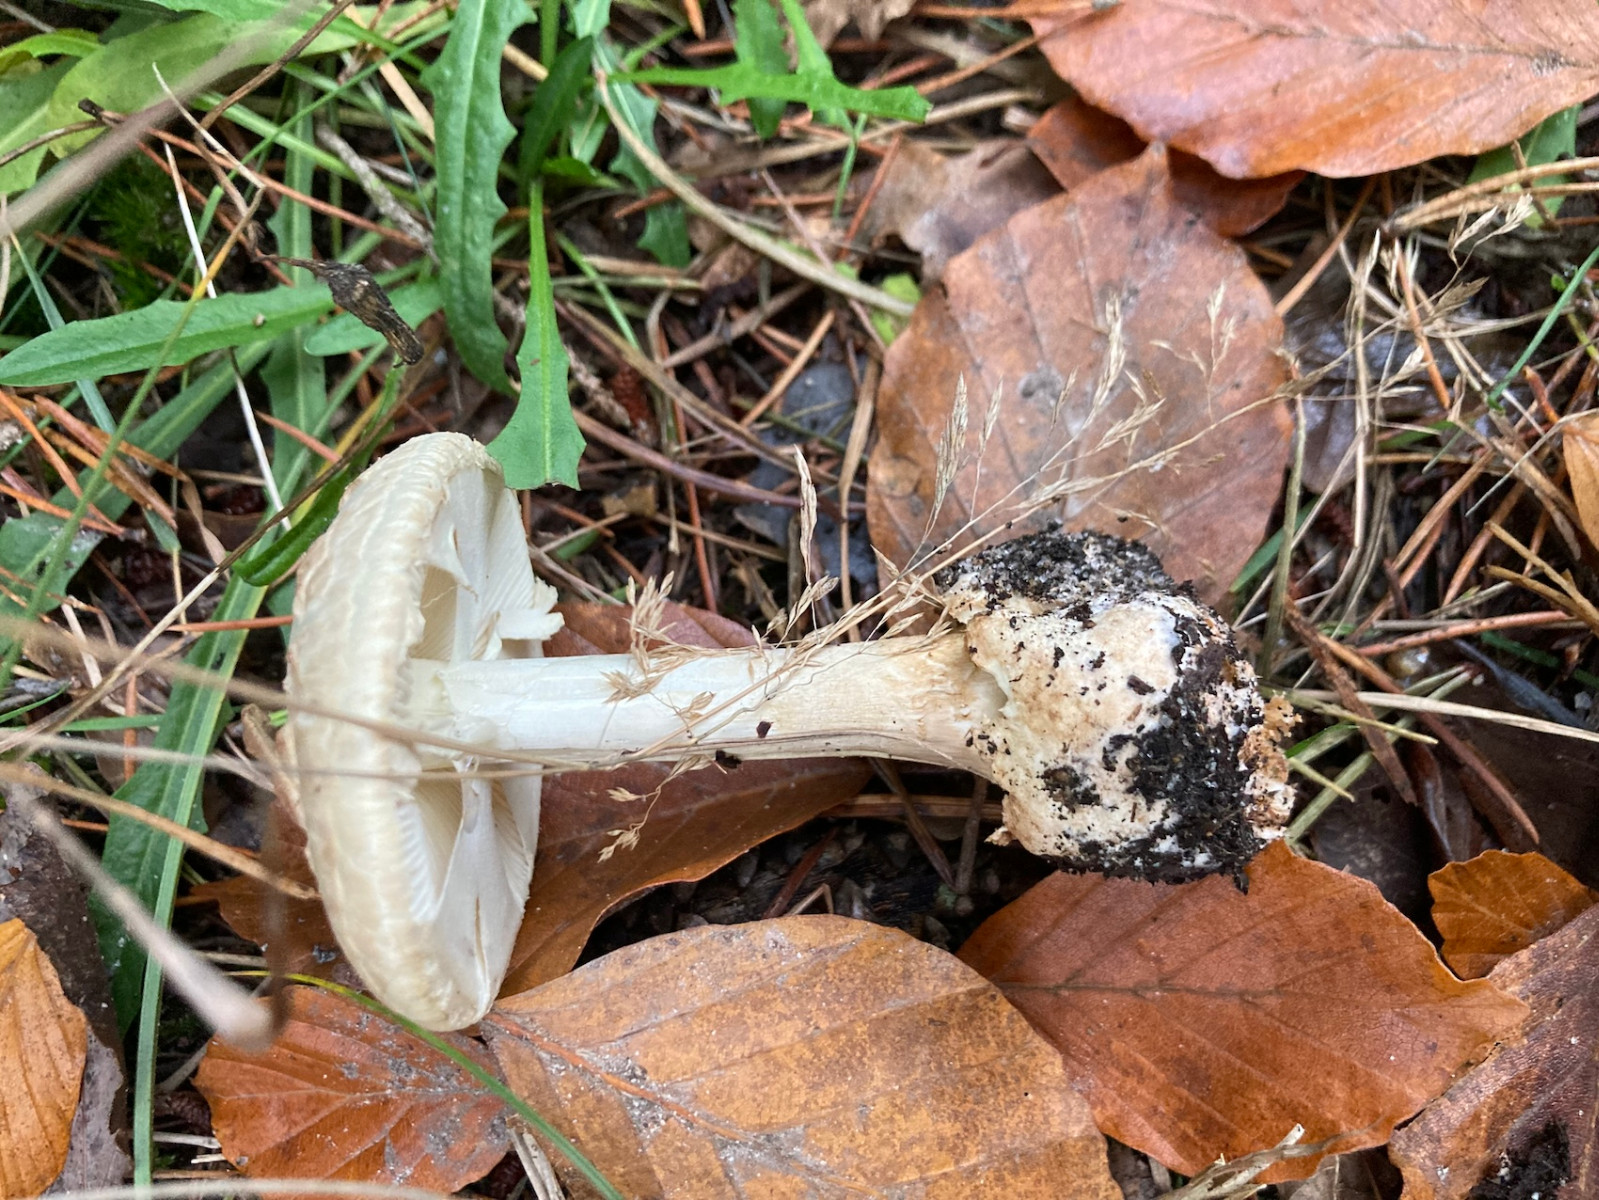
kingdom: Fungi
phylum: Basidiomycota
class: Agaricomycetes
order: Agaricales
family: Amanitaceae
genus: Amanita
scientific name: Amanita citrina
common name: kugleknoldet fluesvamp
